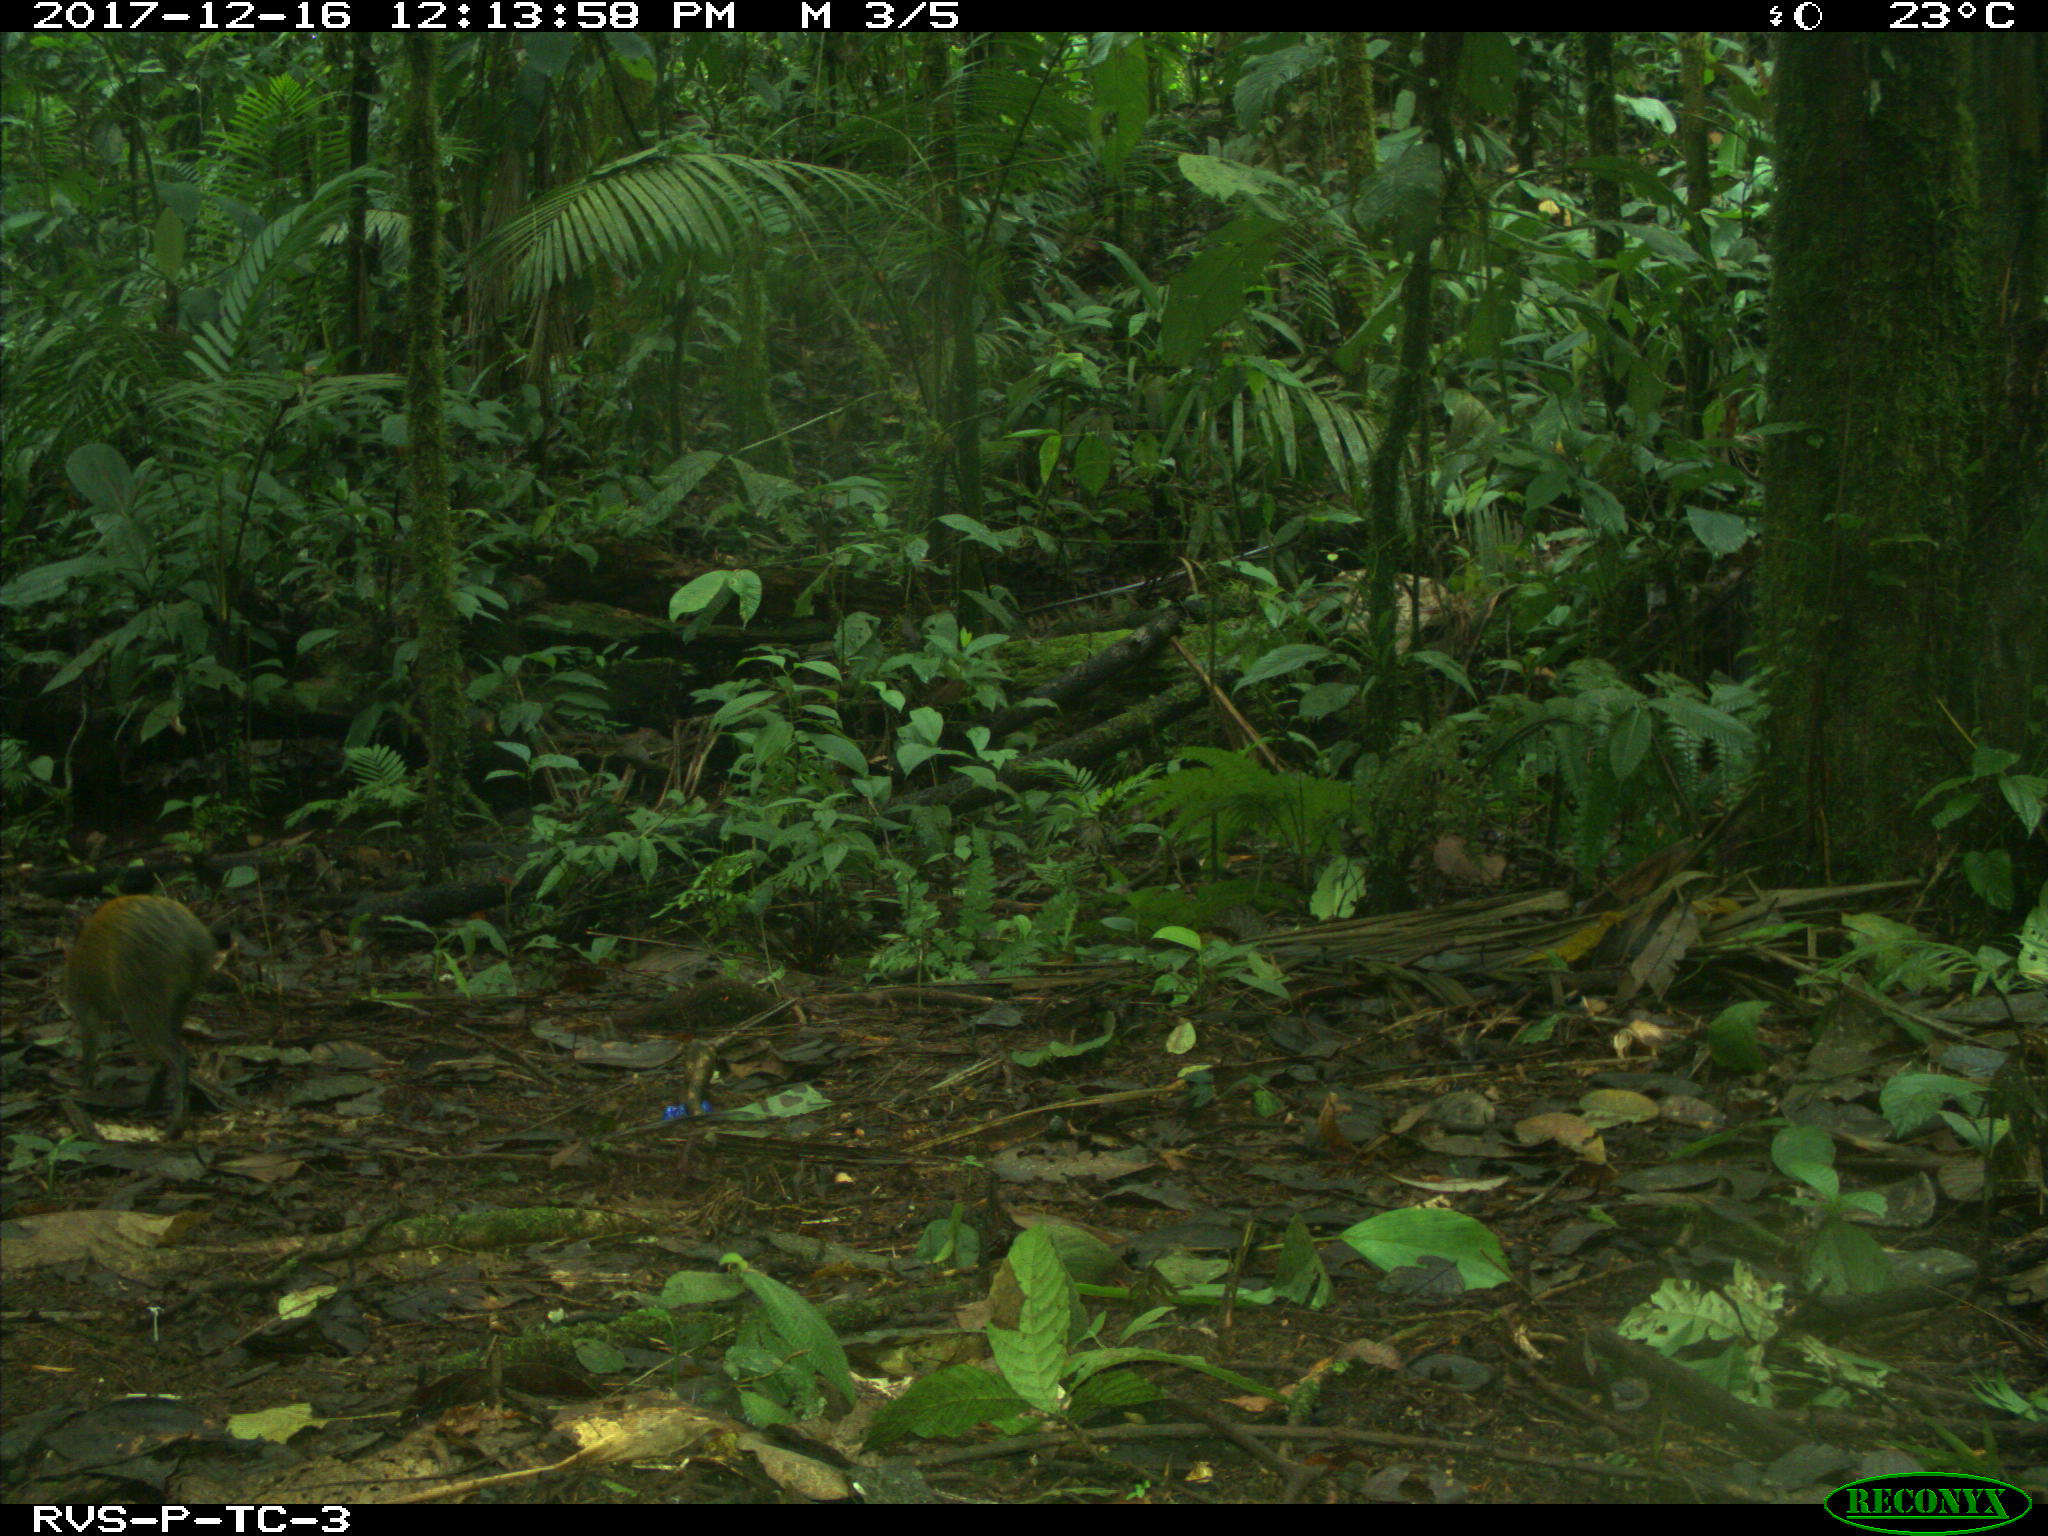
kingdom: Animalia
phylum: Chordata
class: Mammalia
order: Rodentia
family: Dasyproctidae
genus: Dasyprocta
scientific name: Dasyprocta punctata
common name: Central american agouti
